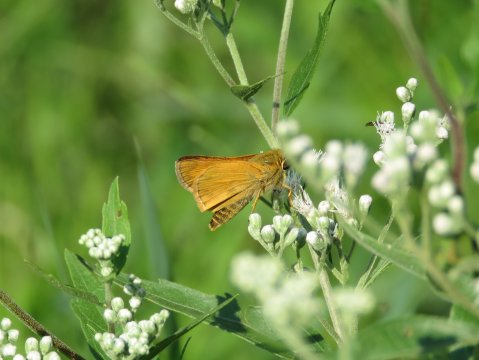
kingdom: Animalia
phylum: Arthropoda
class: Insecta
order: Lepidoptera
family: Hesperiidae
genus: Atalopedes
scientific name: Atalopedes campestris
